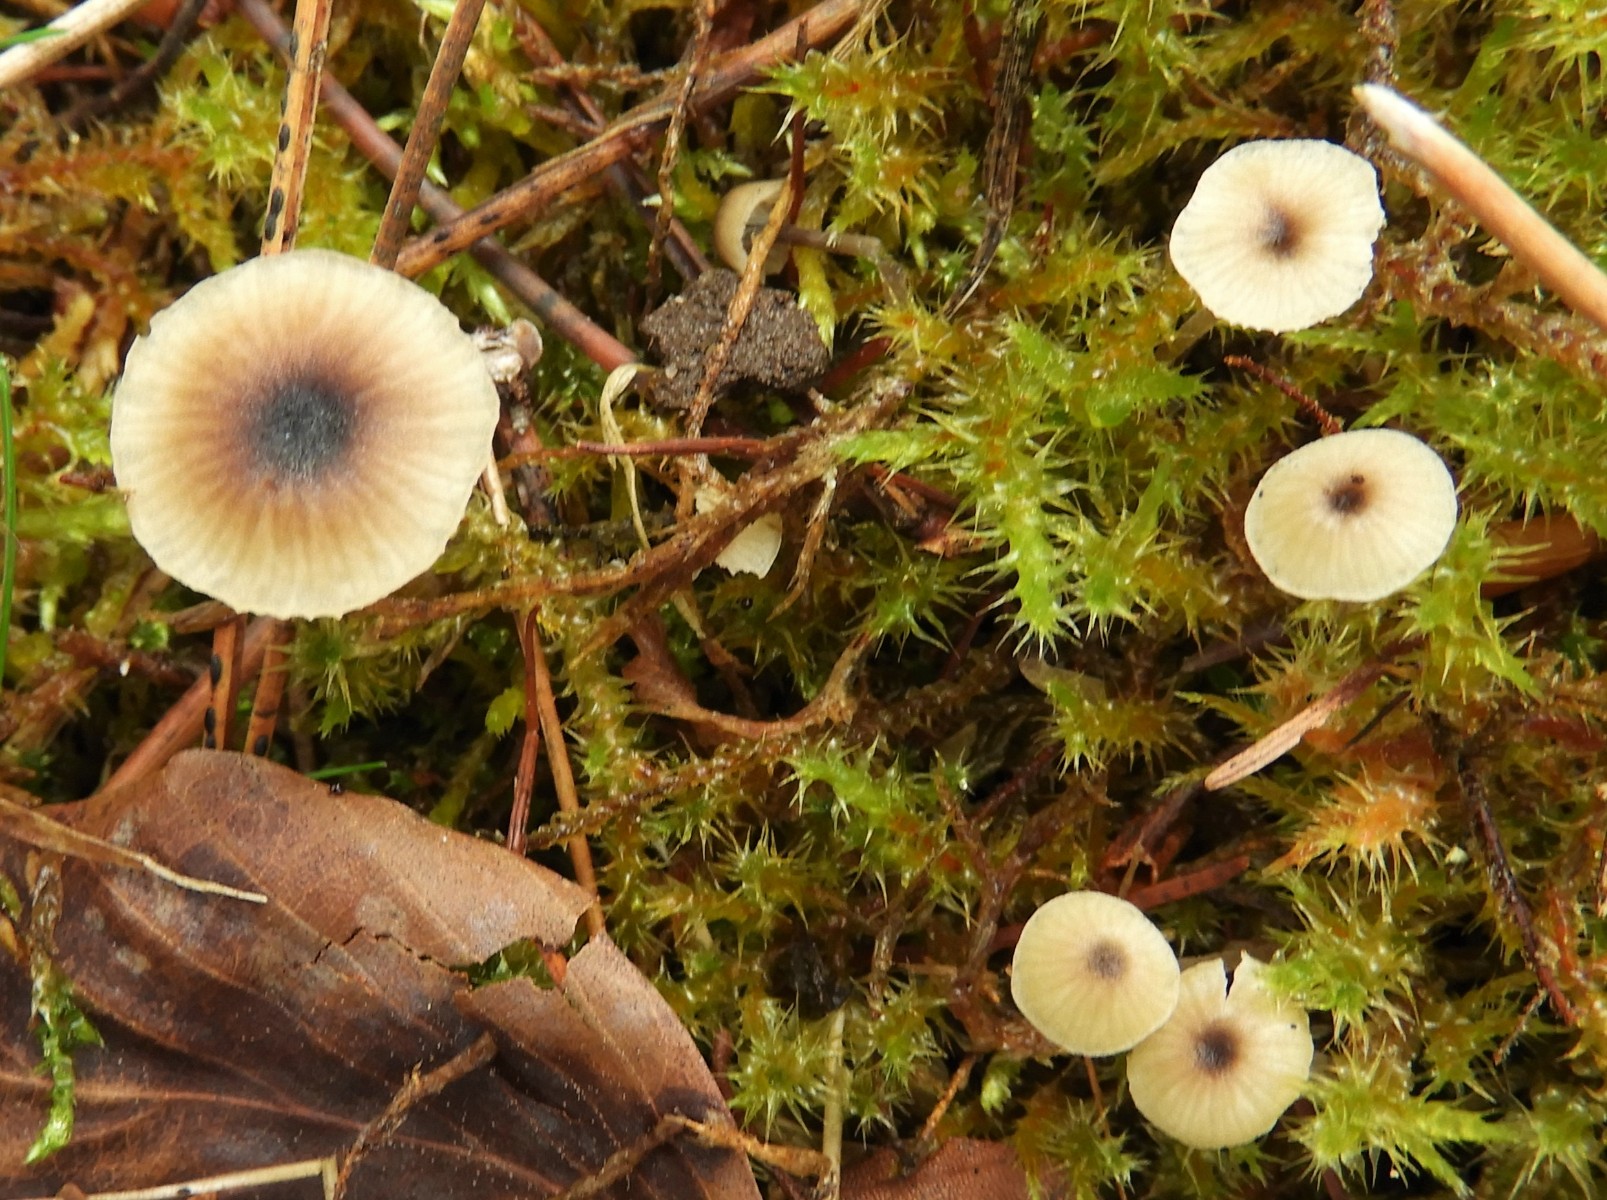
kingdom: Fungi
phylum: Basidiomycota
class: Agaricomycetes
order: Hymenochaetales
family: Rickenellaceae
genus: Rickenella
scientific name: Rickenella swartzii
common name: finstokket mosnavlehat
